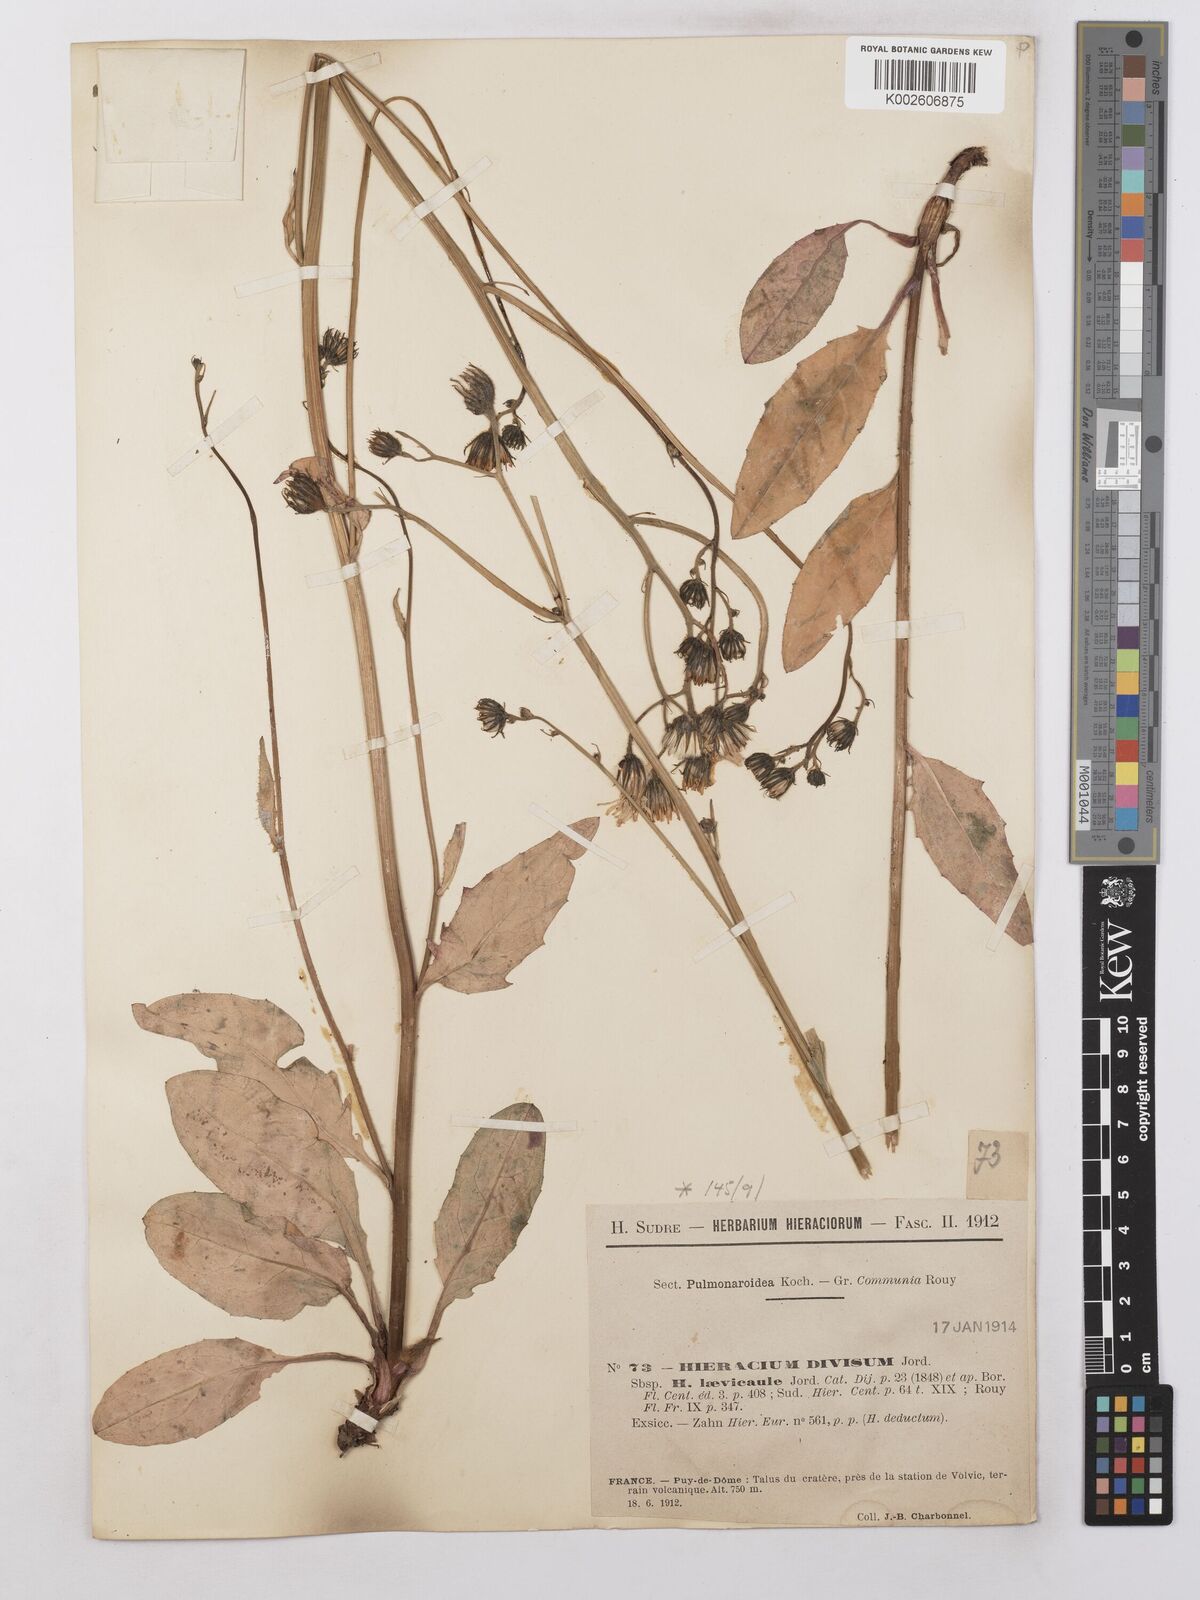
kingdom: Plantae
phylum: Tracheophyta
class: Magnoliopsida
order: Asterales
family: Asteraceae
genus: Hieracium
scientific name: Hieracium levicaule
